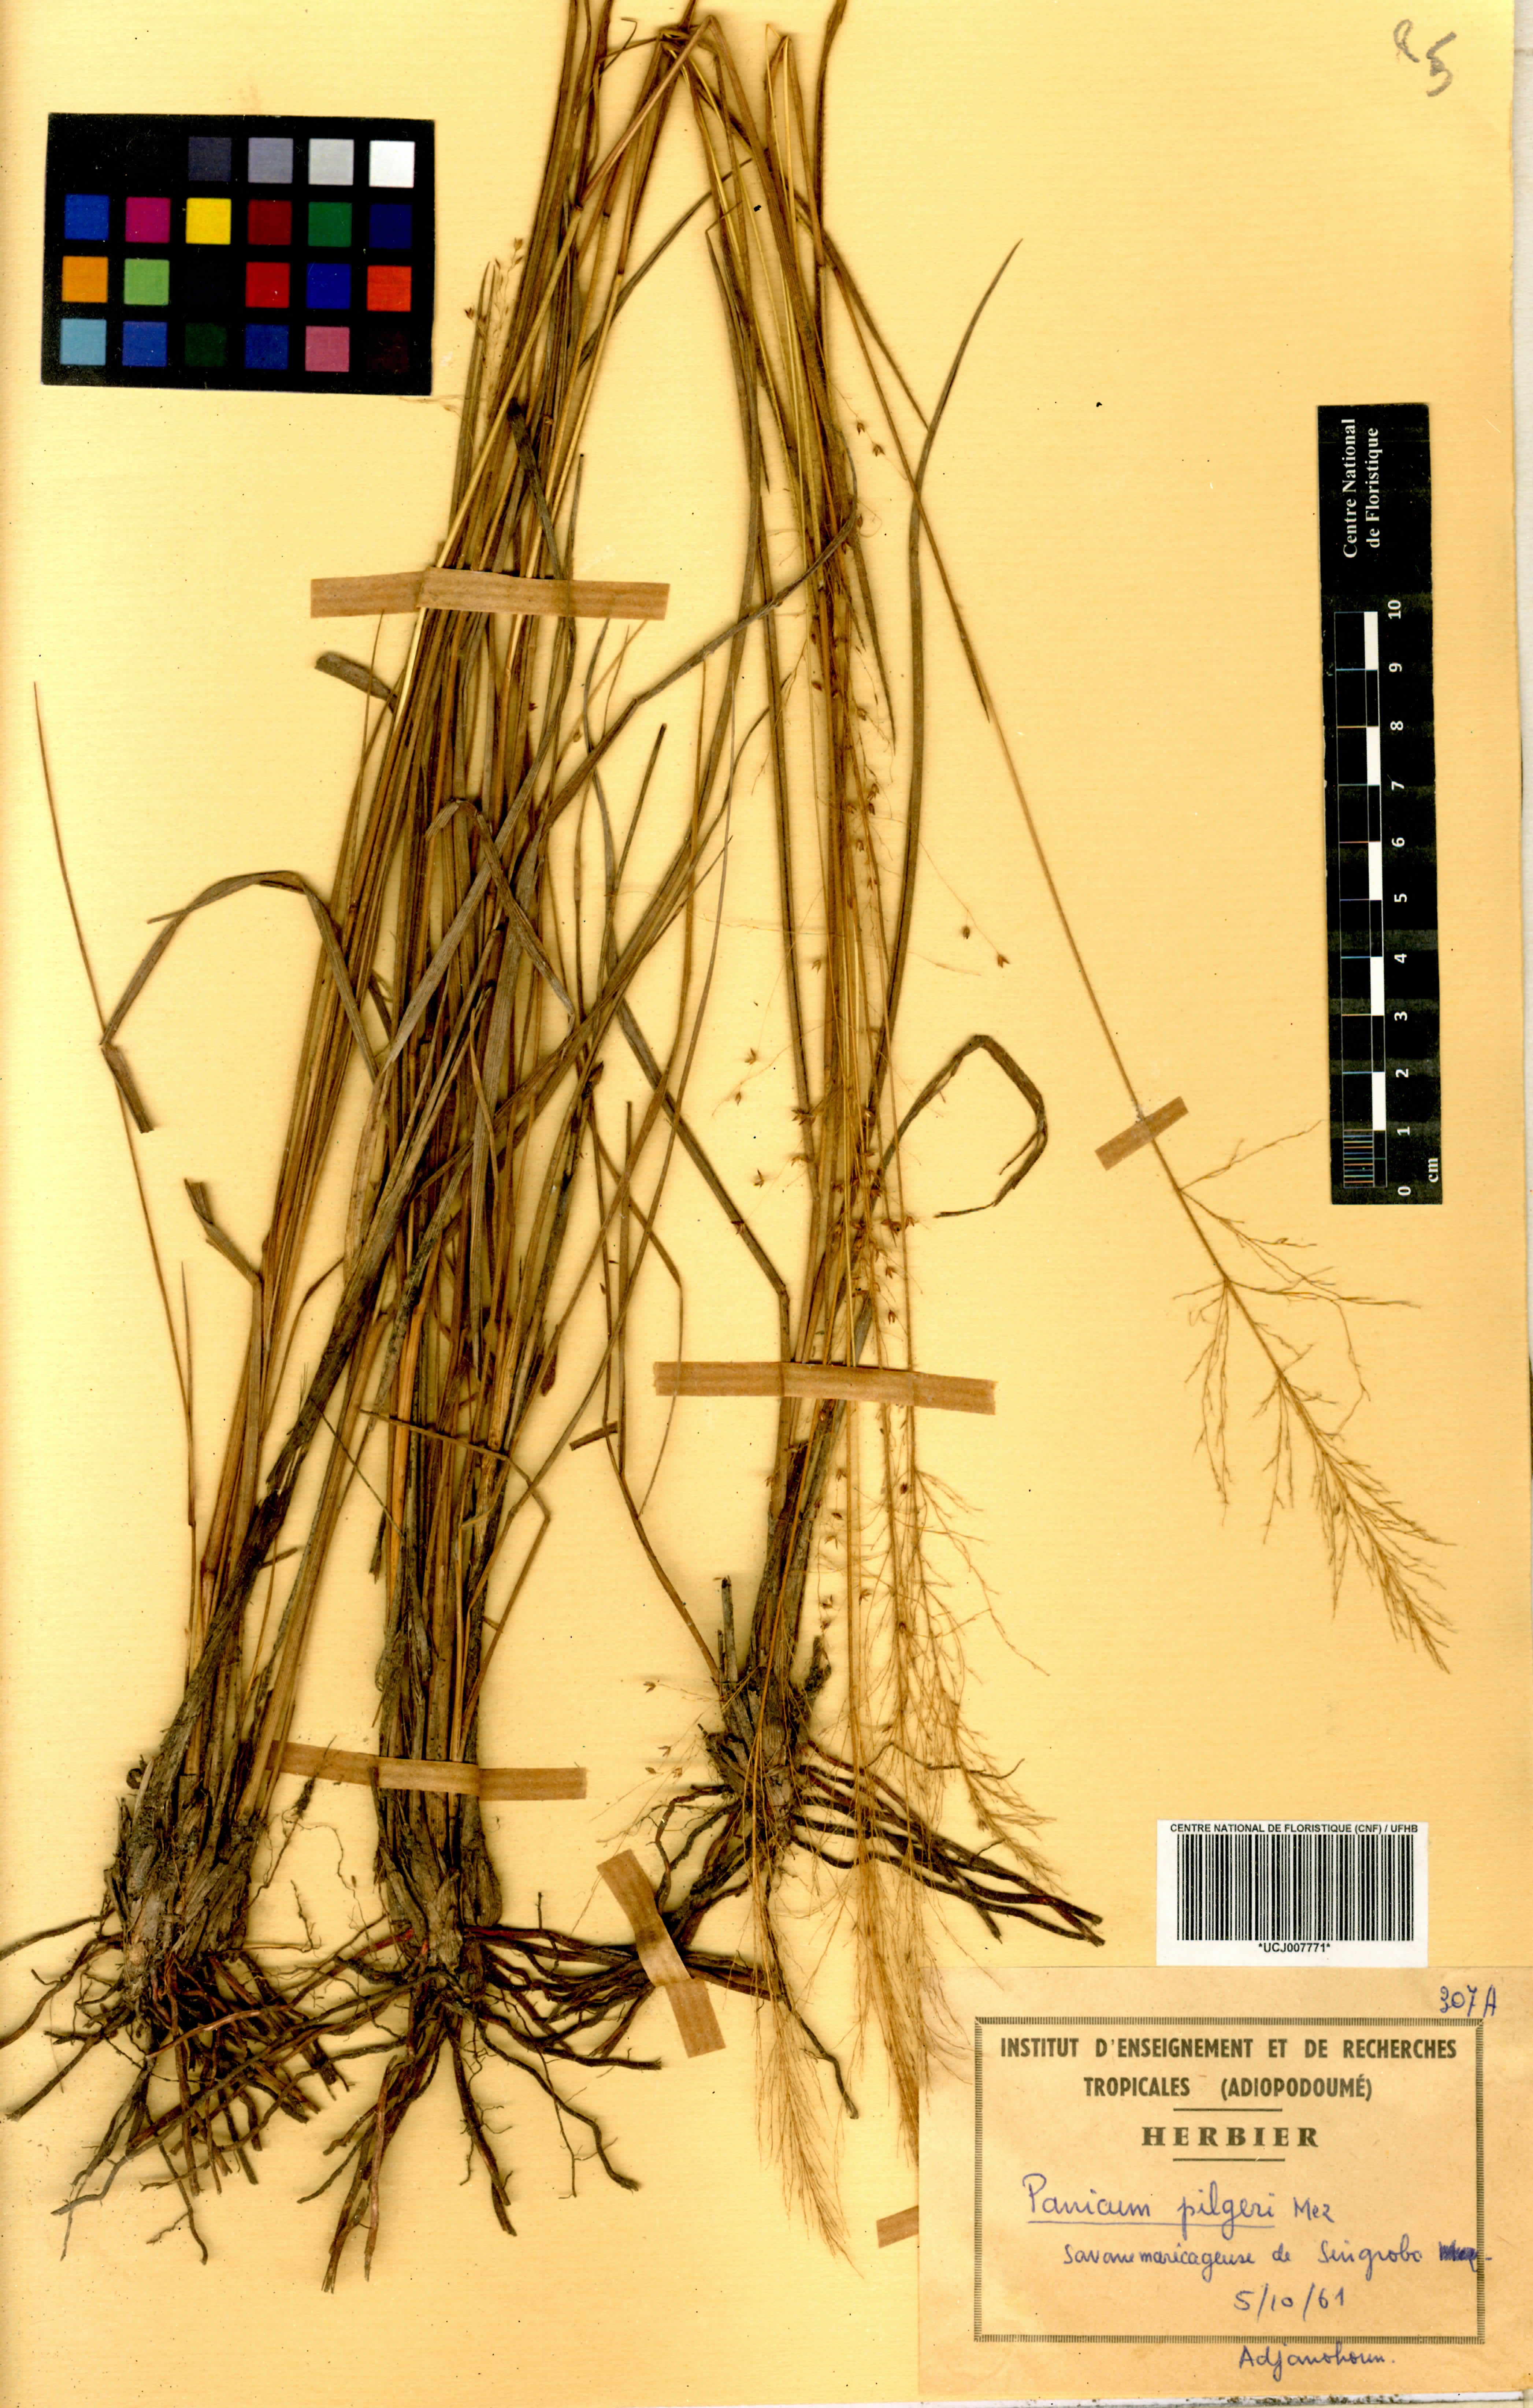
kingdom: Plantae
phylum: Tracheophyta
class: Liliopsida
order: Poales
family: Poaceae
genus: Panicum
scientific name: Panicum pilgeri
